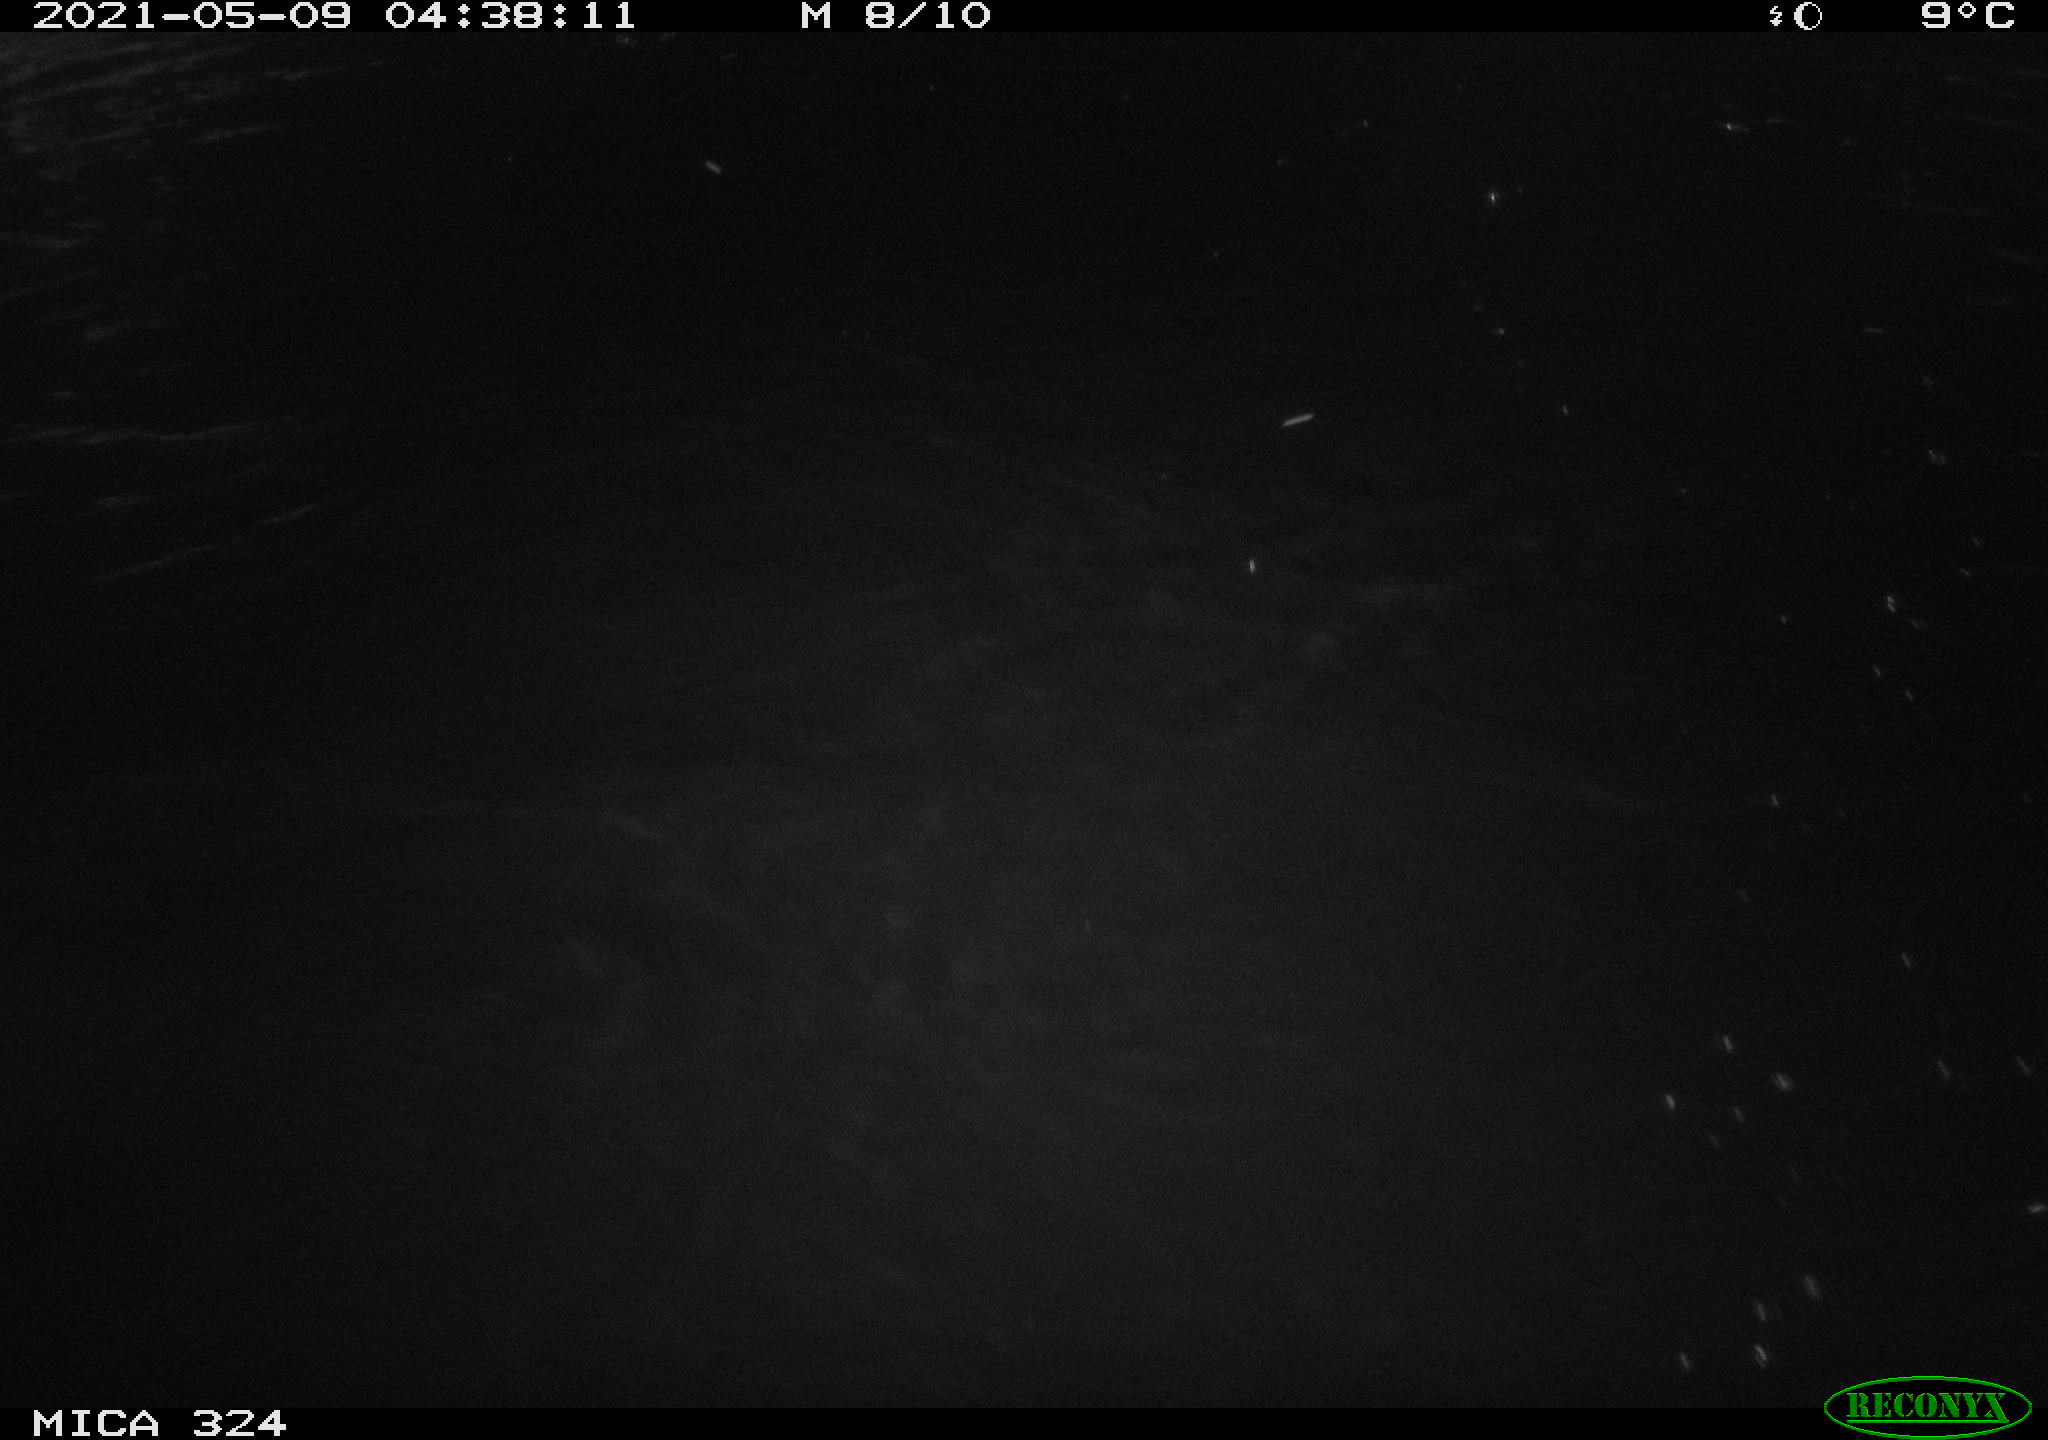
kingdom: Animalia
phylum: Chordata
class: Aves
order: Anseriformes
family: Anatidae
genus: Anas
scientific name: Anas platyrhynchos
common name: Mallard
